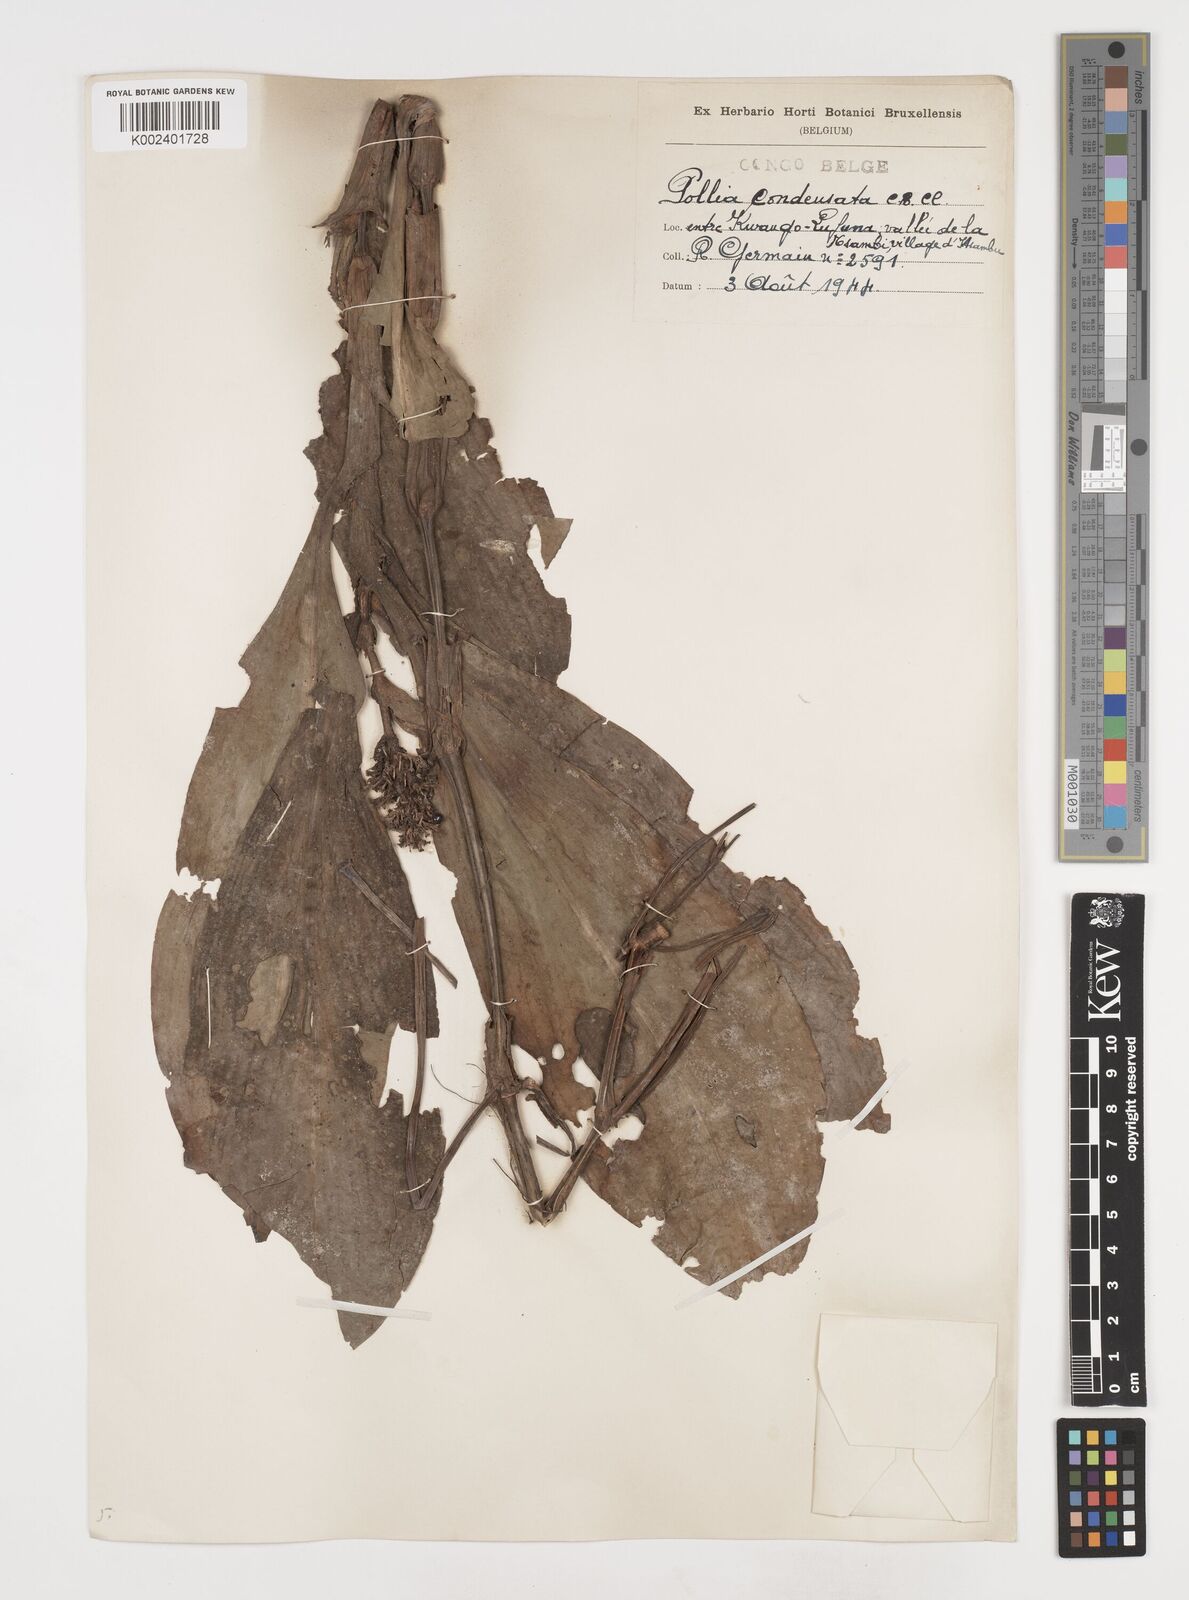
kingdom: Plantae
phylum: Tracheophyta
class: Liliopsida
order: Commelinales
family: Commelinaceae
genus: Pollia
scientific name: Pollia condensata
